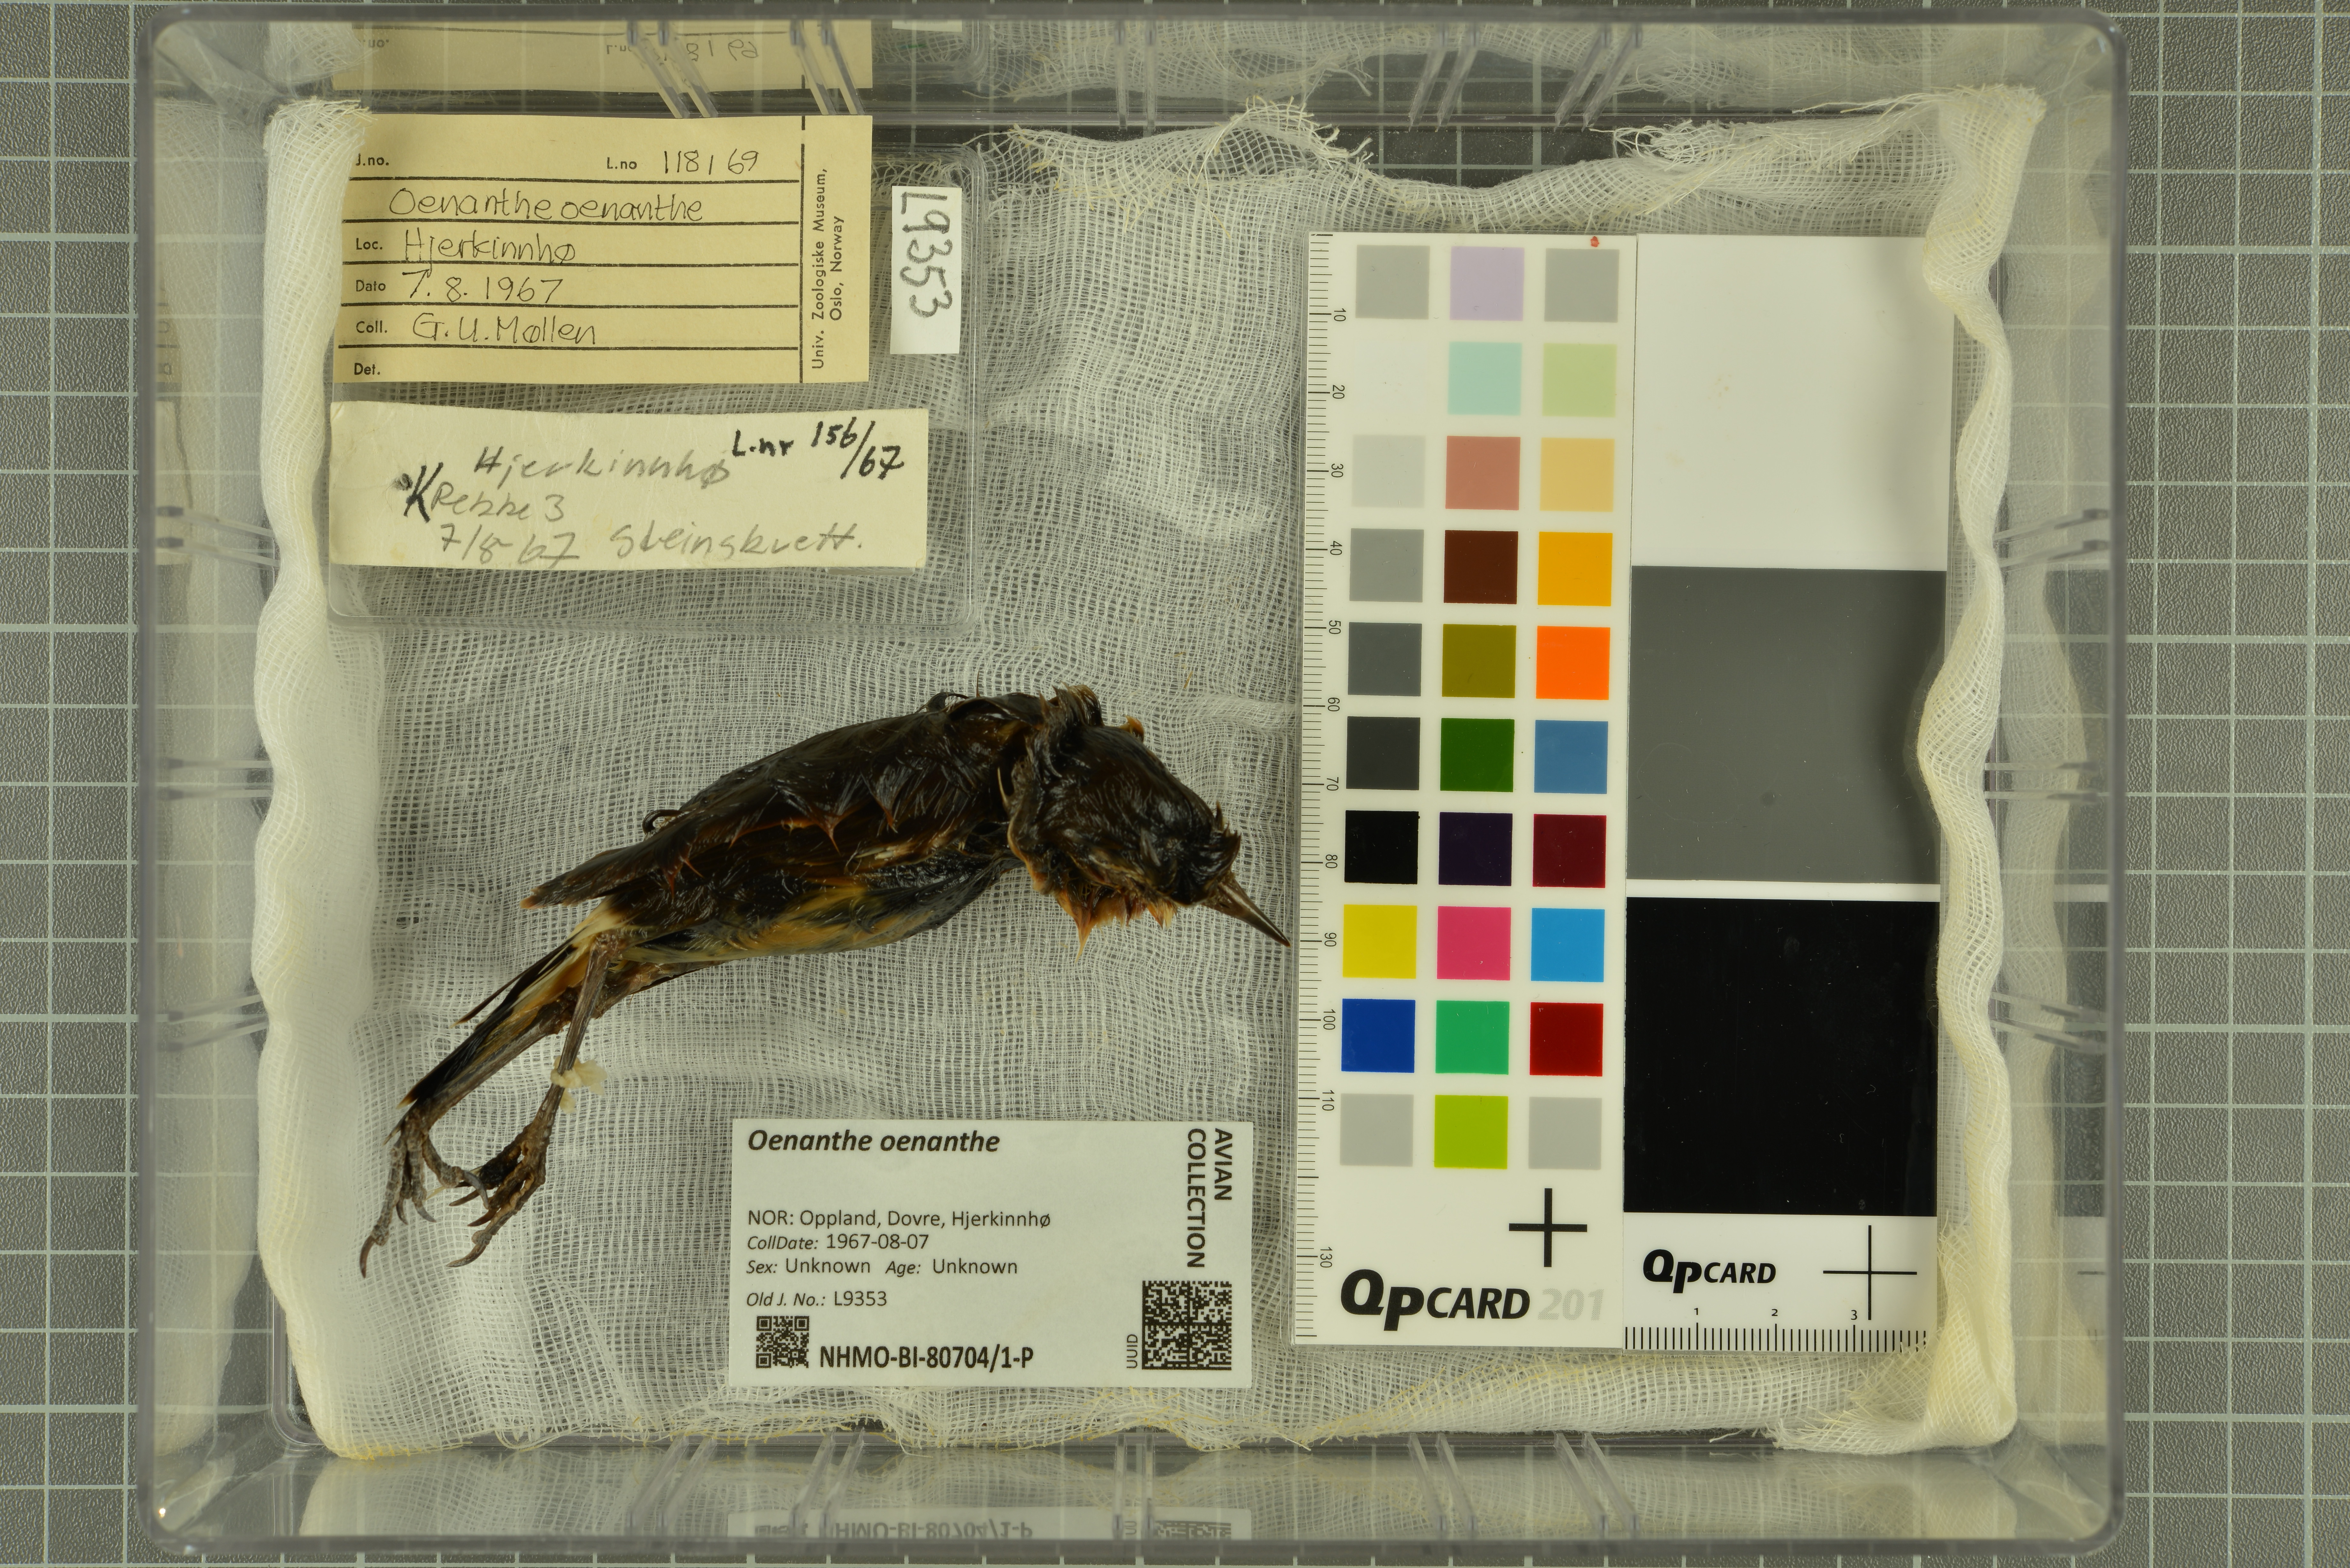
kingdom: Animalia
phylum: Chordata
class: Aves
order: Passeriformes
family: Muscicapidae
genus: Oenanthe
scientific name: Oenanthe oenanthe
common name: Northern wheatear
